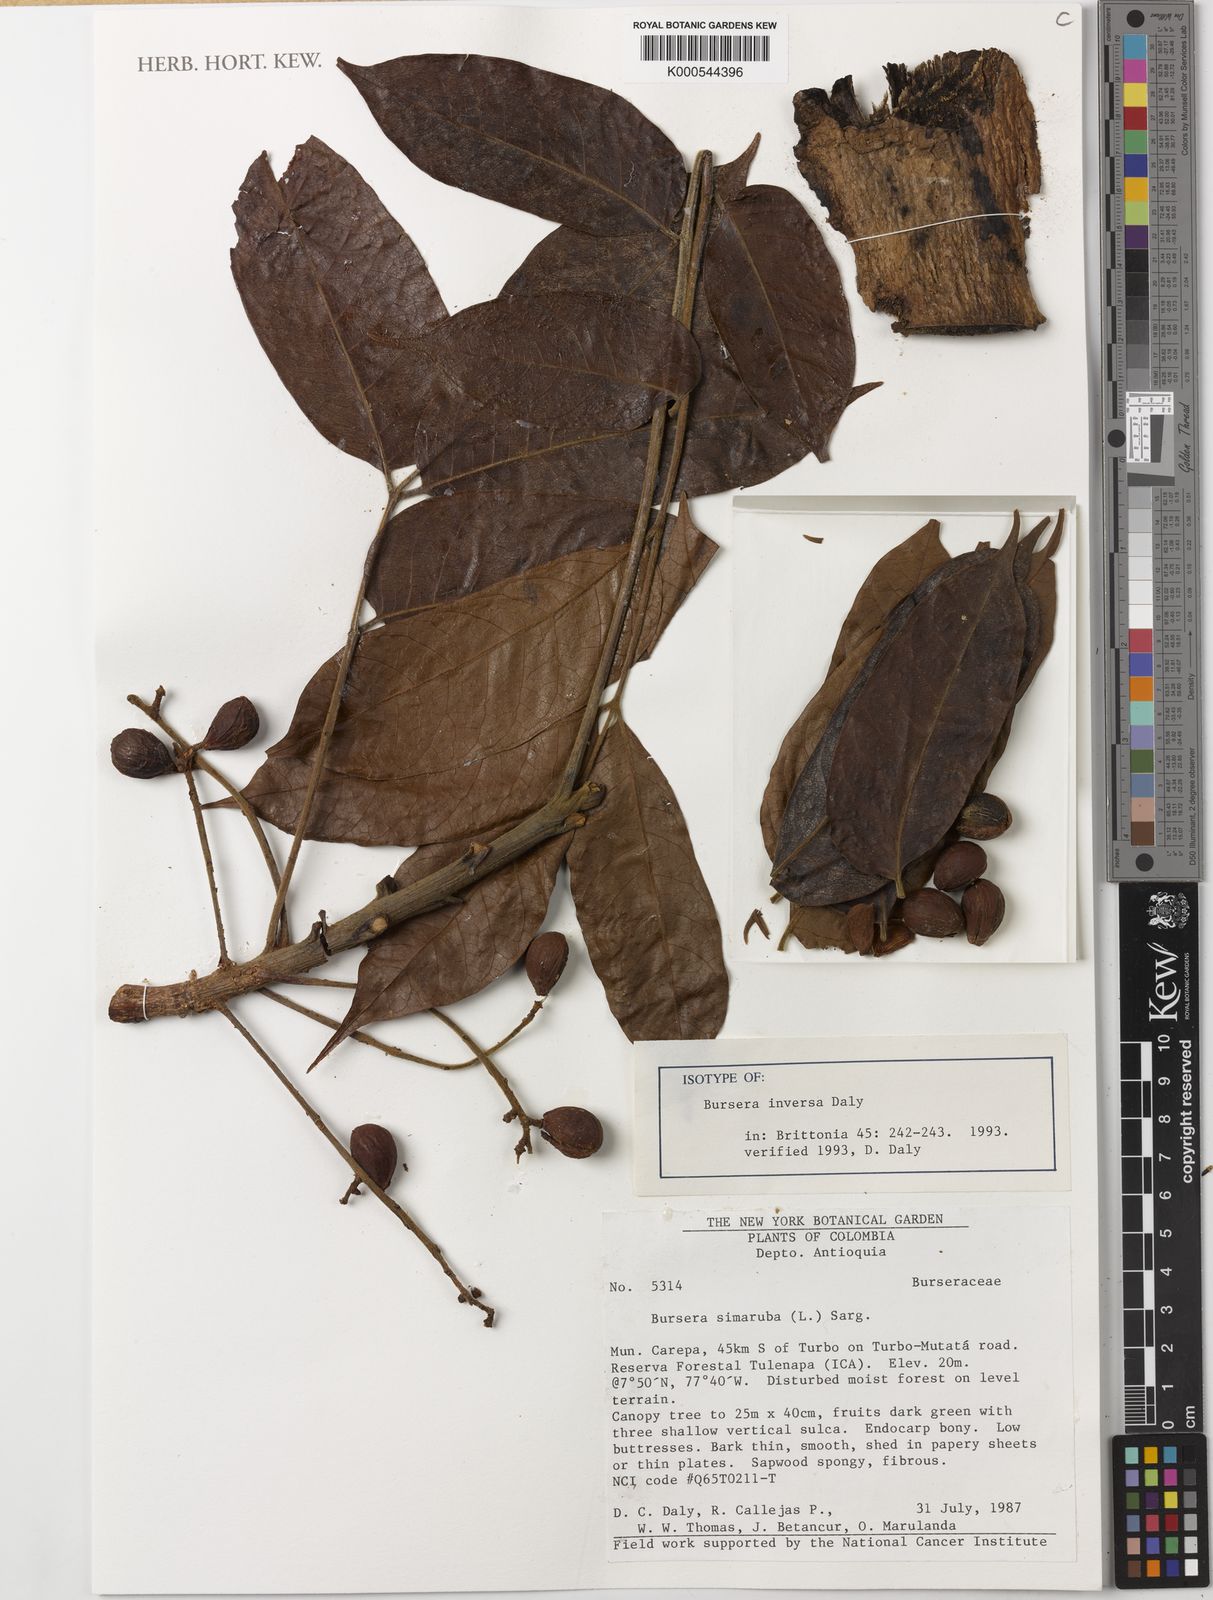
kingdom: Plantae
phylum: Tracheophyta
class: Magnoliopsida
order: Sapindales
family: Burseraceae
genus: Bursera
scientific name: Bursera inversa
